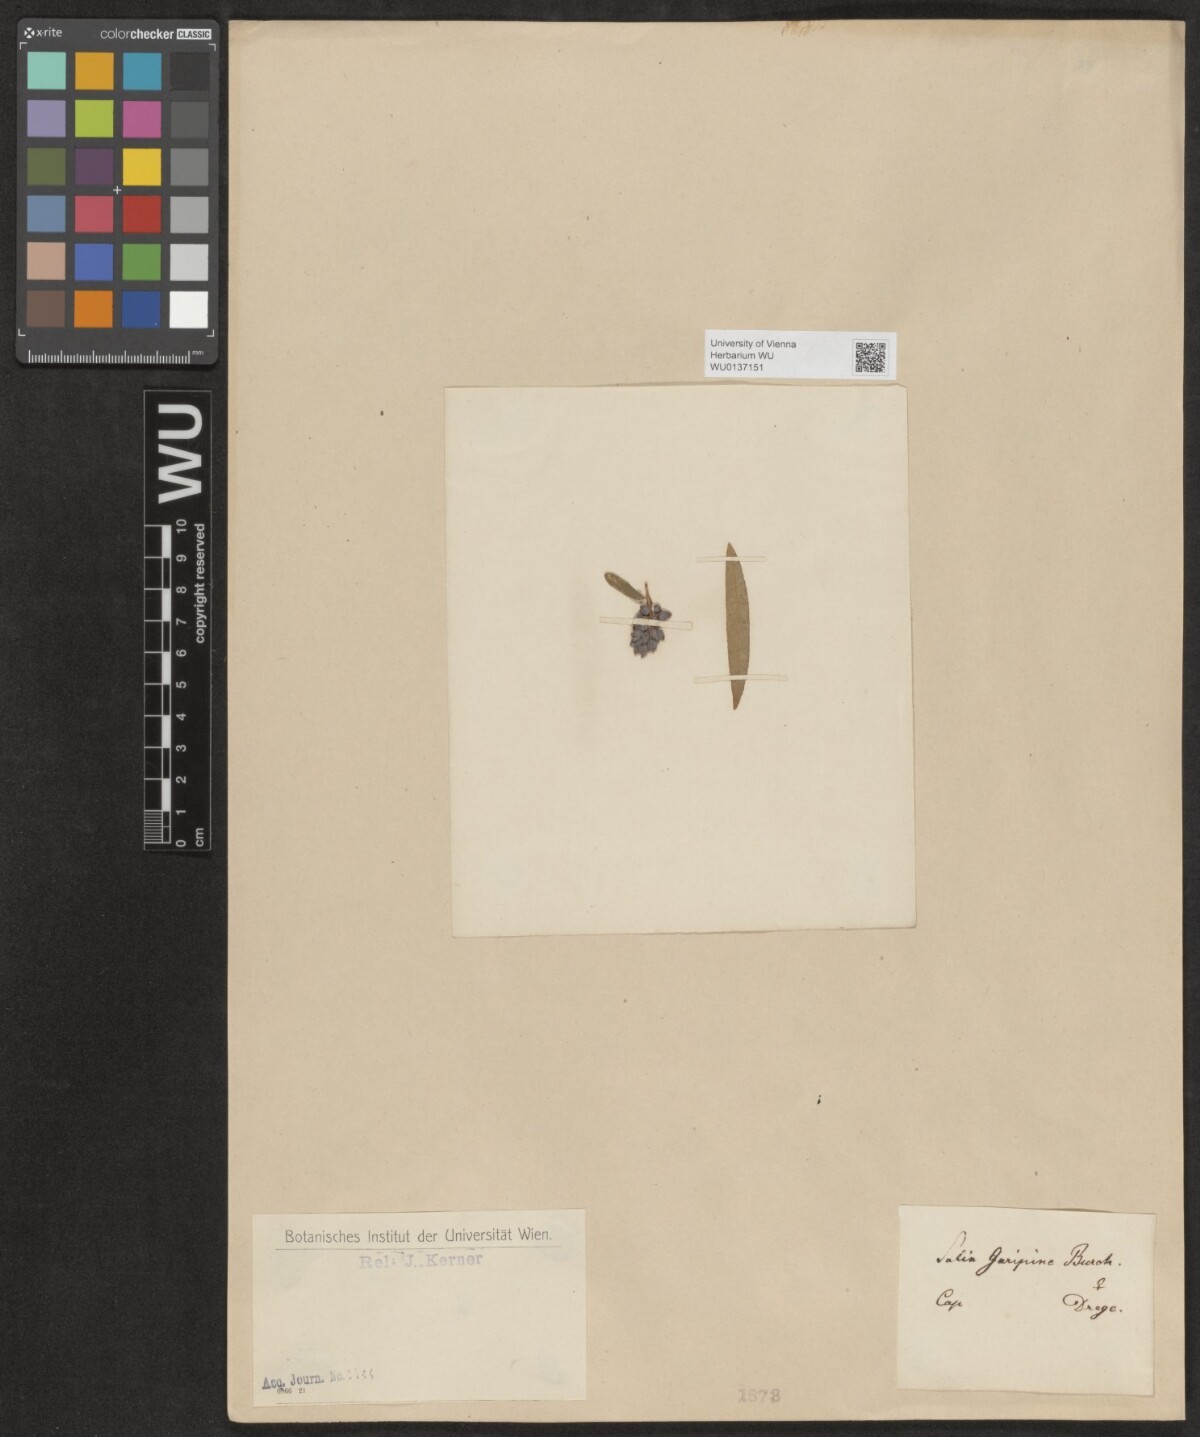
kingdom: Plantae
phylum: Tracheophyta
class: Magnoliopsida
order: Malpighiales
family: Salicaceae
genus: Salix
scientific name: Salix mucronata
